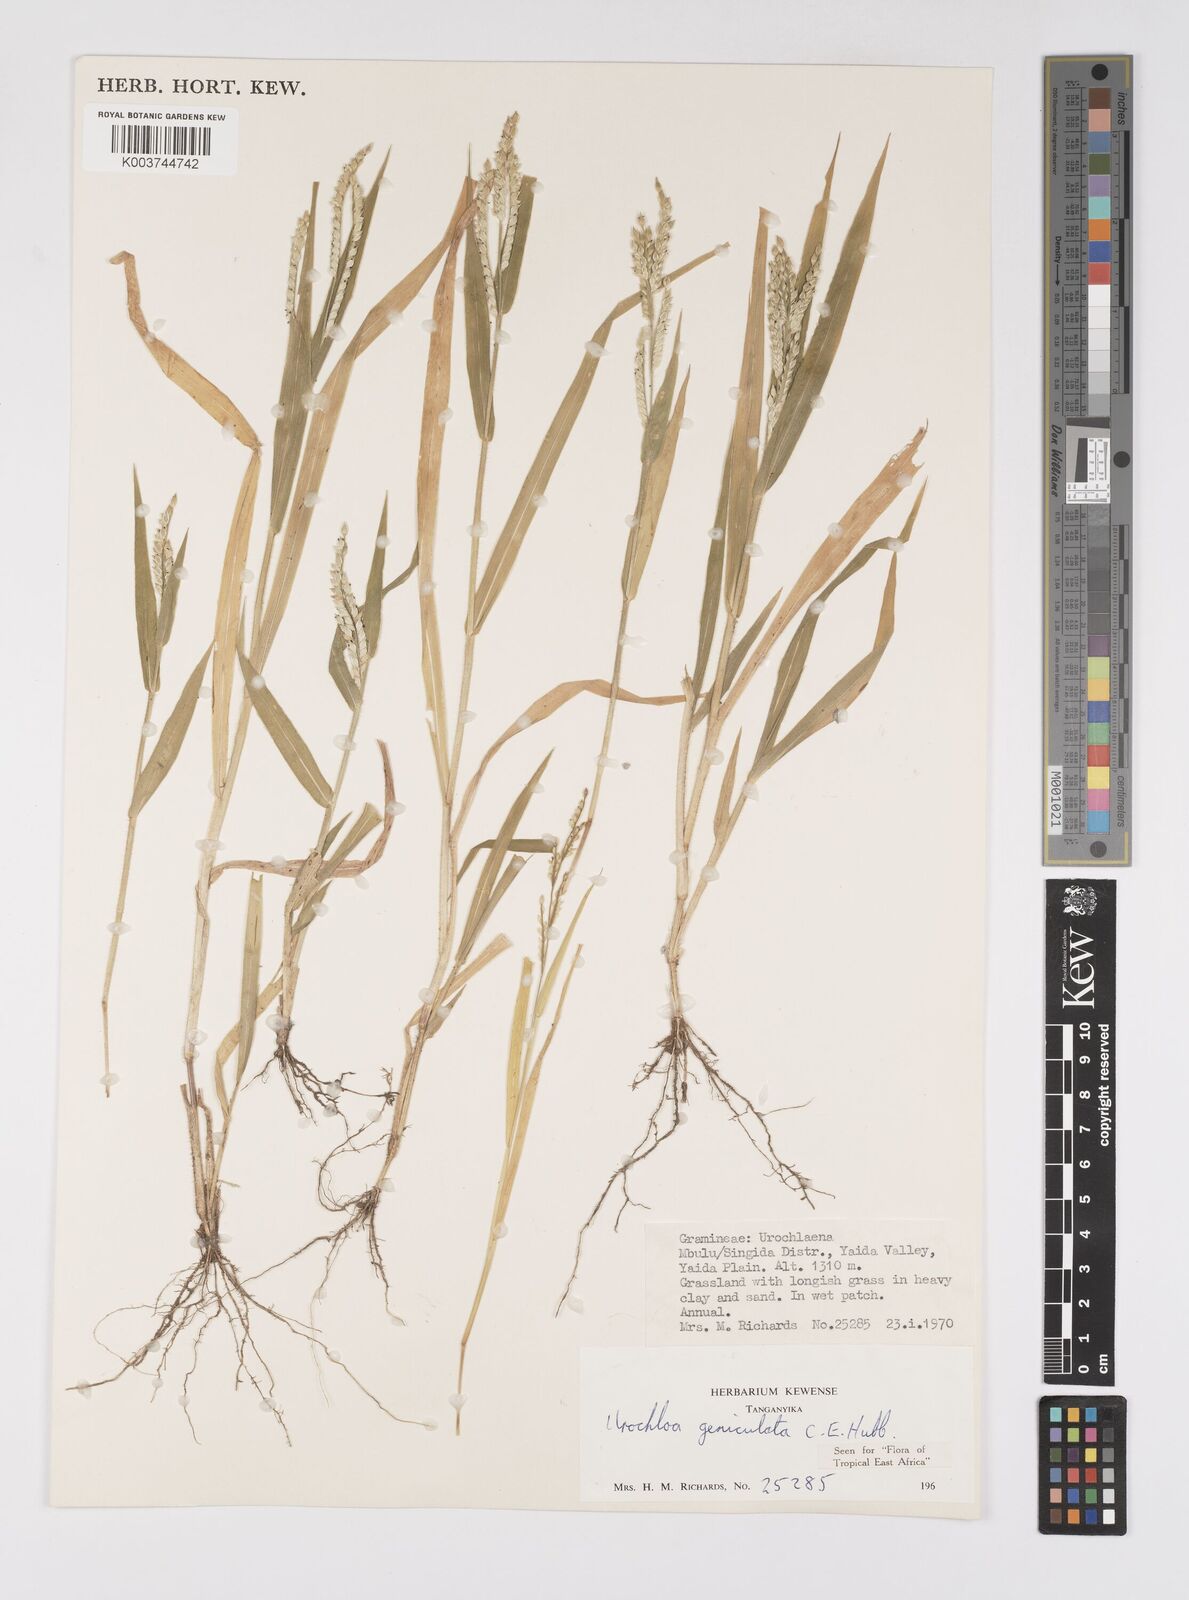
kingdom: Plantae
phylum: Tracheophyta
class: Liliopsida
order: Poales
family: Poaceae
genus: Urochloa
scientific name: Urochloa brachyura
